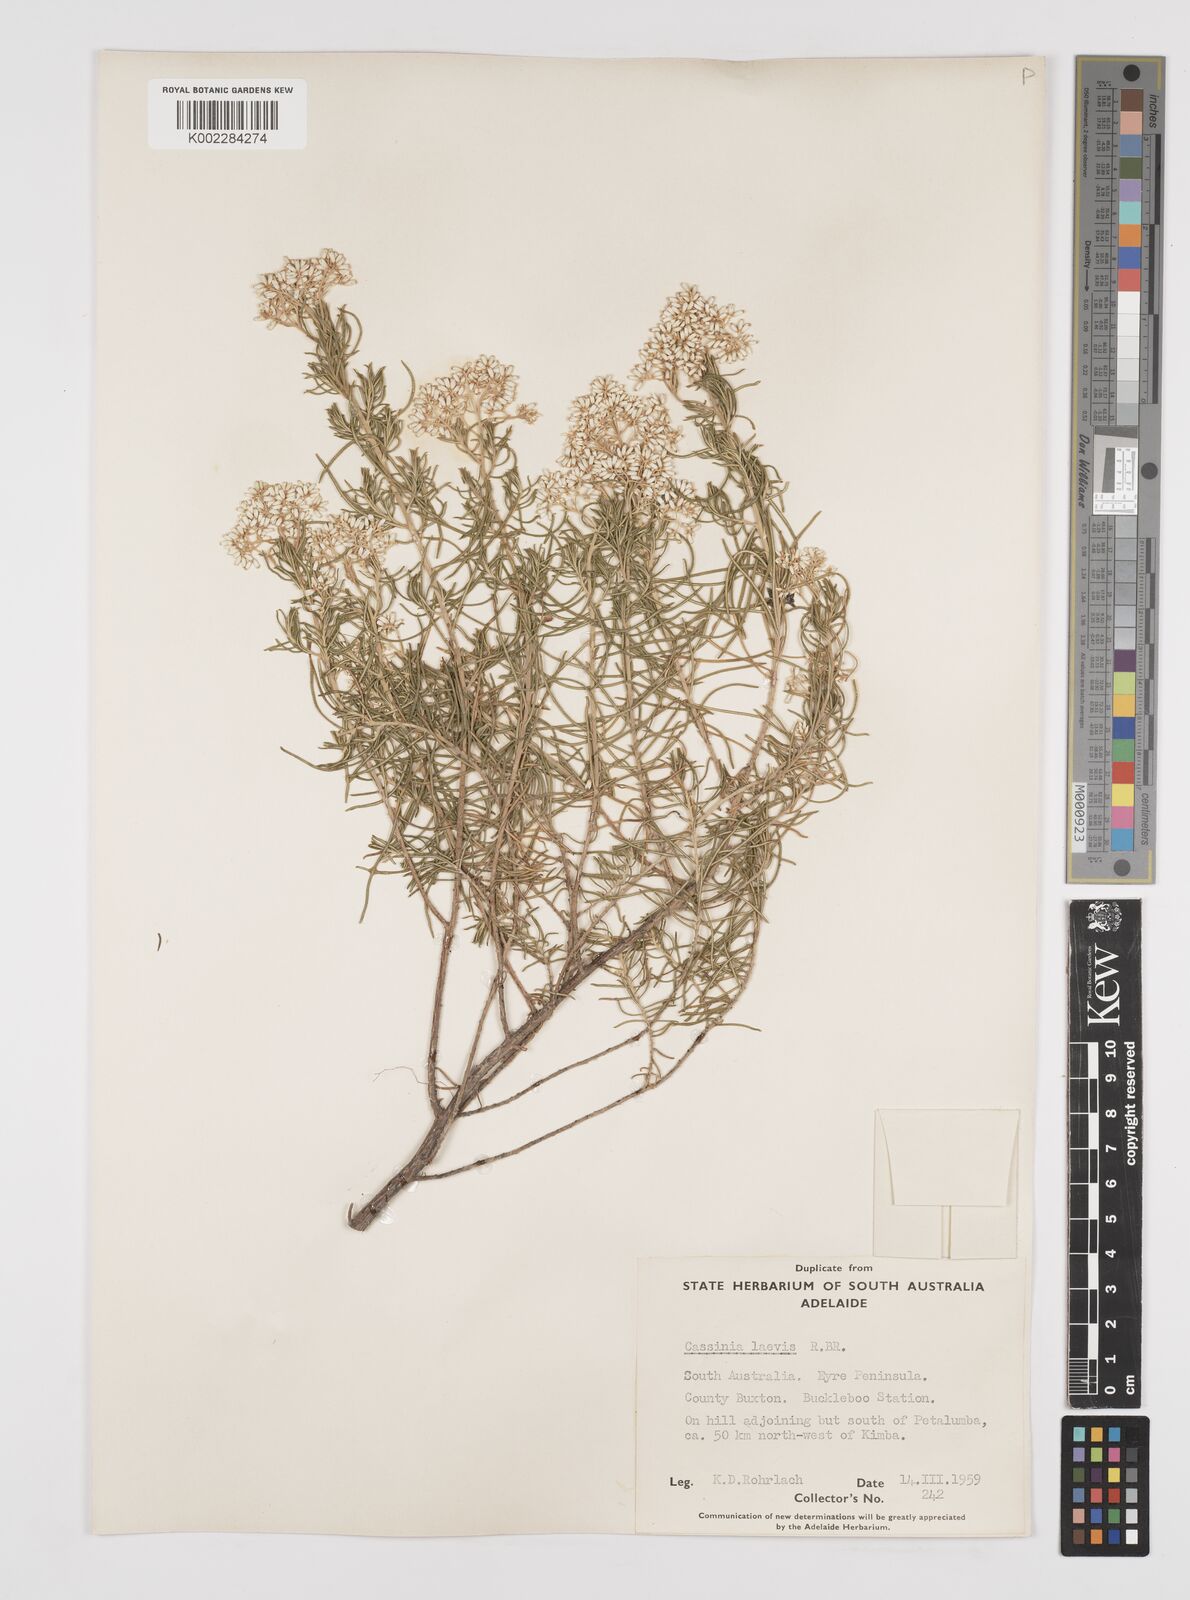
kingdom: Plantae
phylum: Tracheophyta
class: Magnoliopsida
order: Asterales
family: Asteraceae
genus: Cassinia
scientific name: Cassinia laevis
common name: Coughbush
